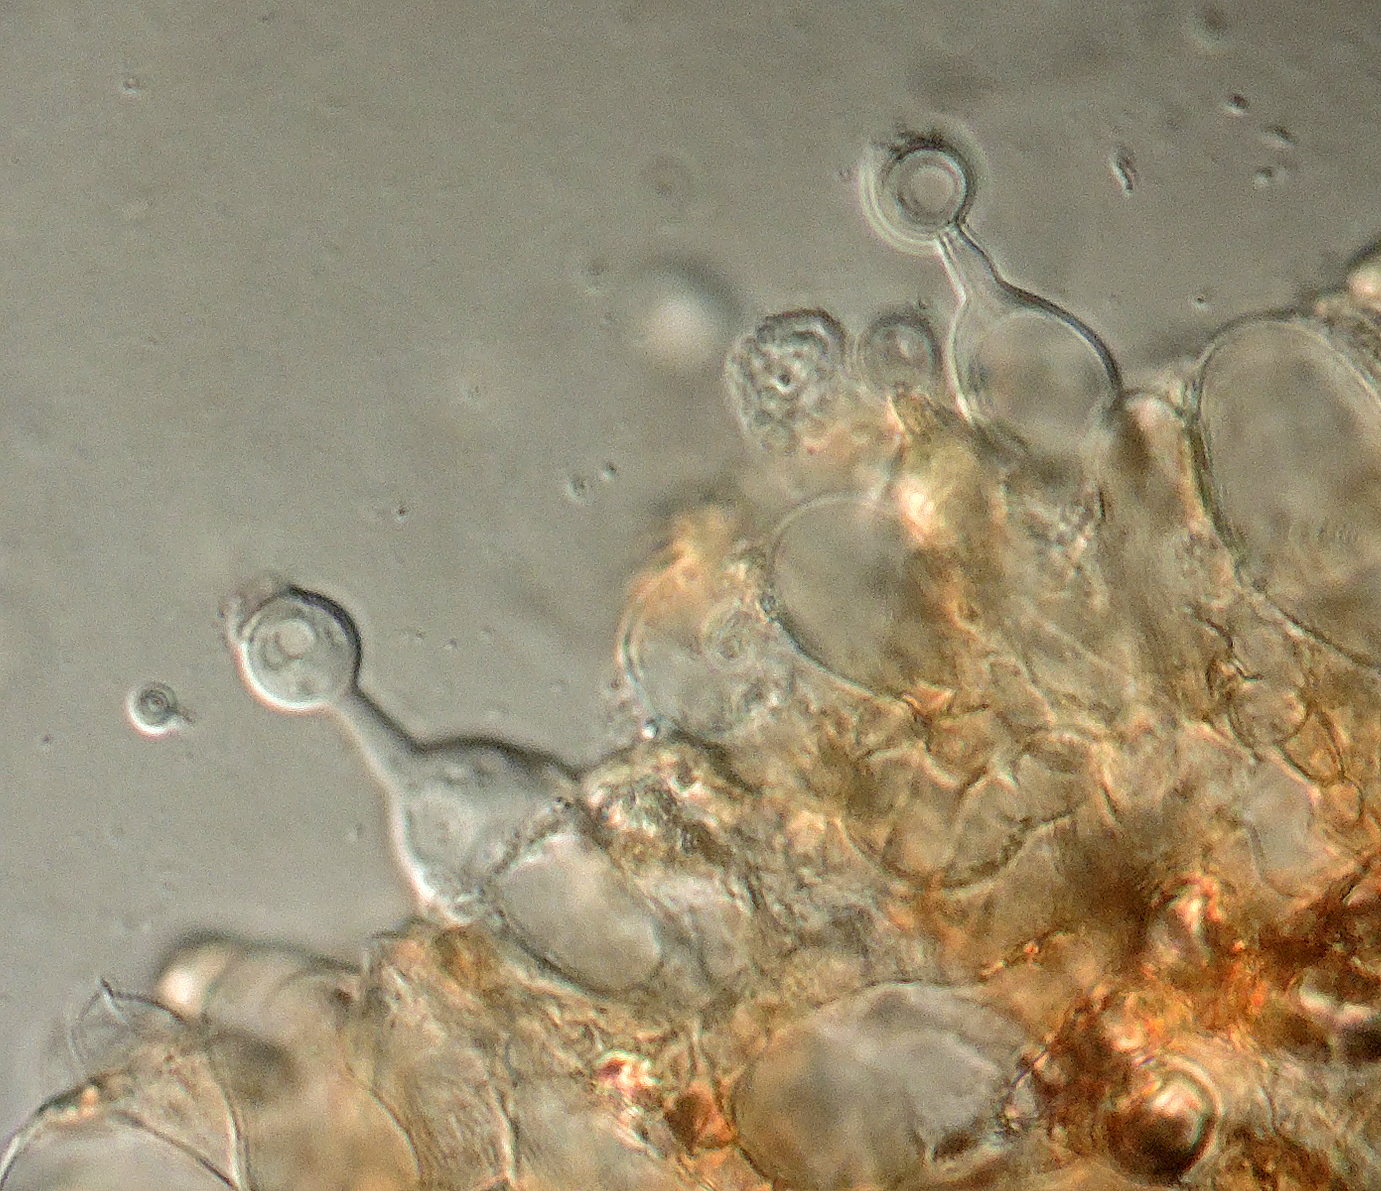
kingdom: Fungi
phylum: Basidiomycota
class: Agaricomycetes
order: Agaricales
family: Bolbitiaceae
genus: Conocybe
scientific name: Conocybe microspora
